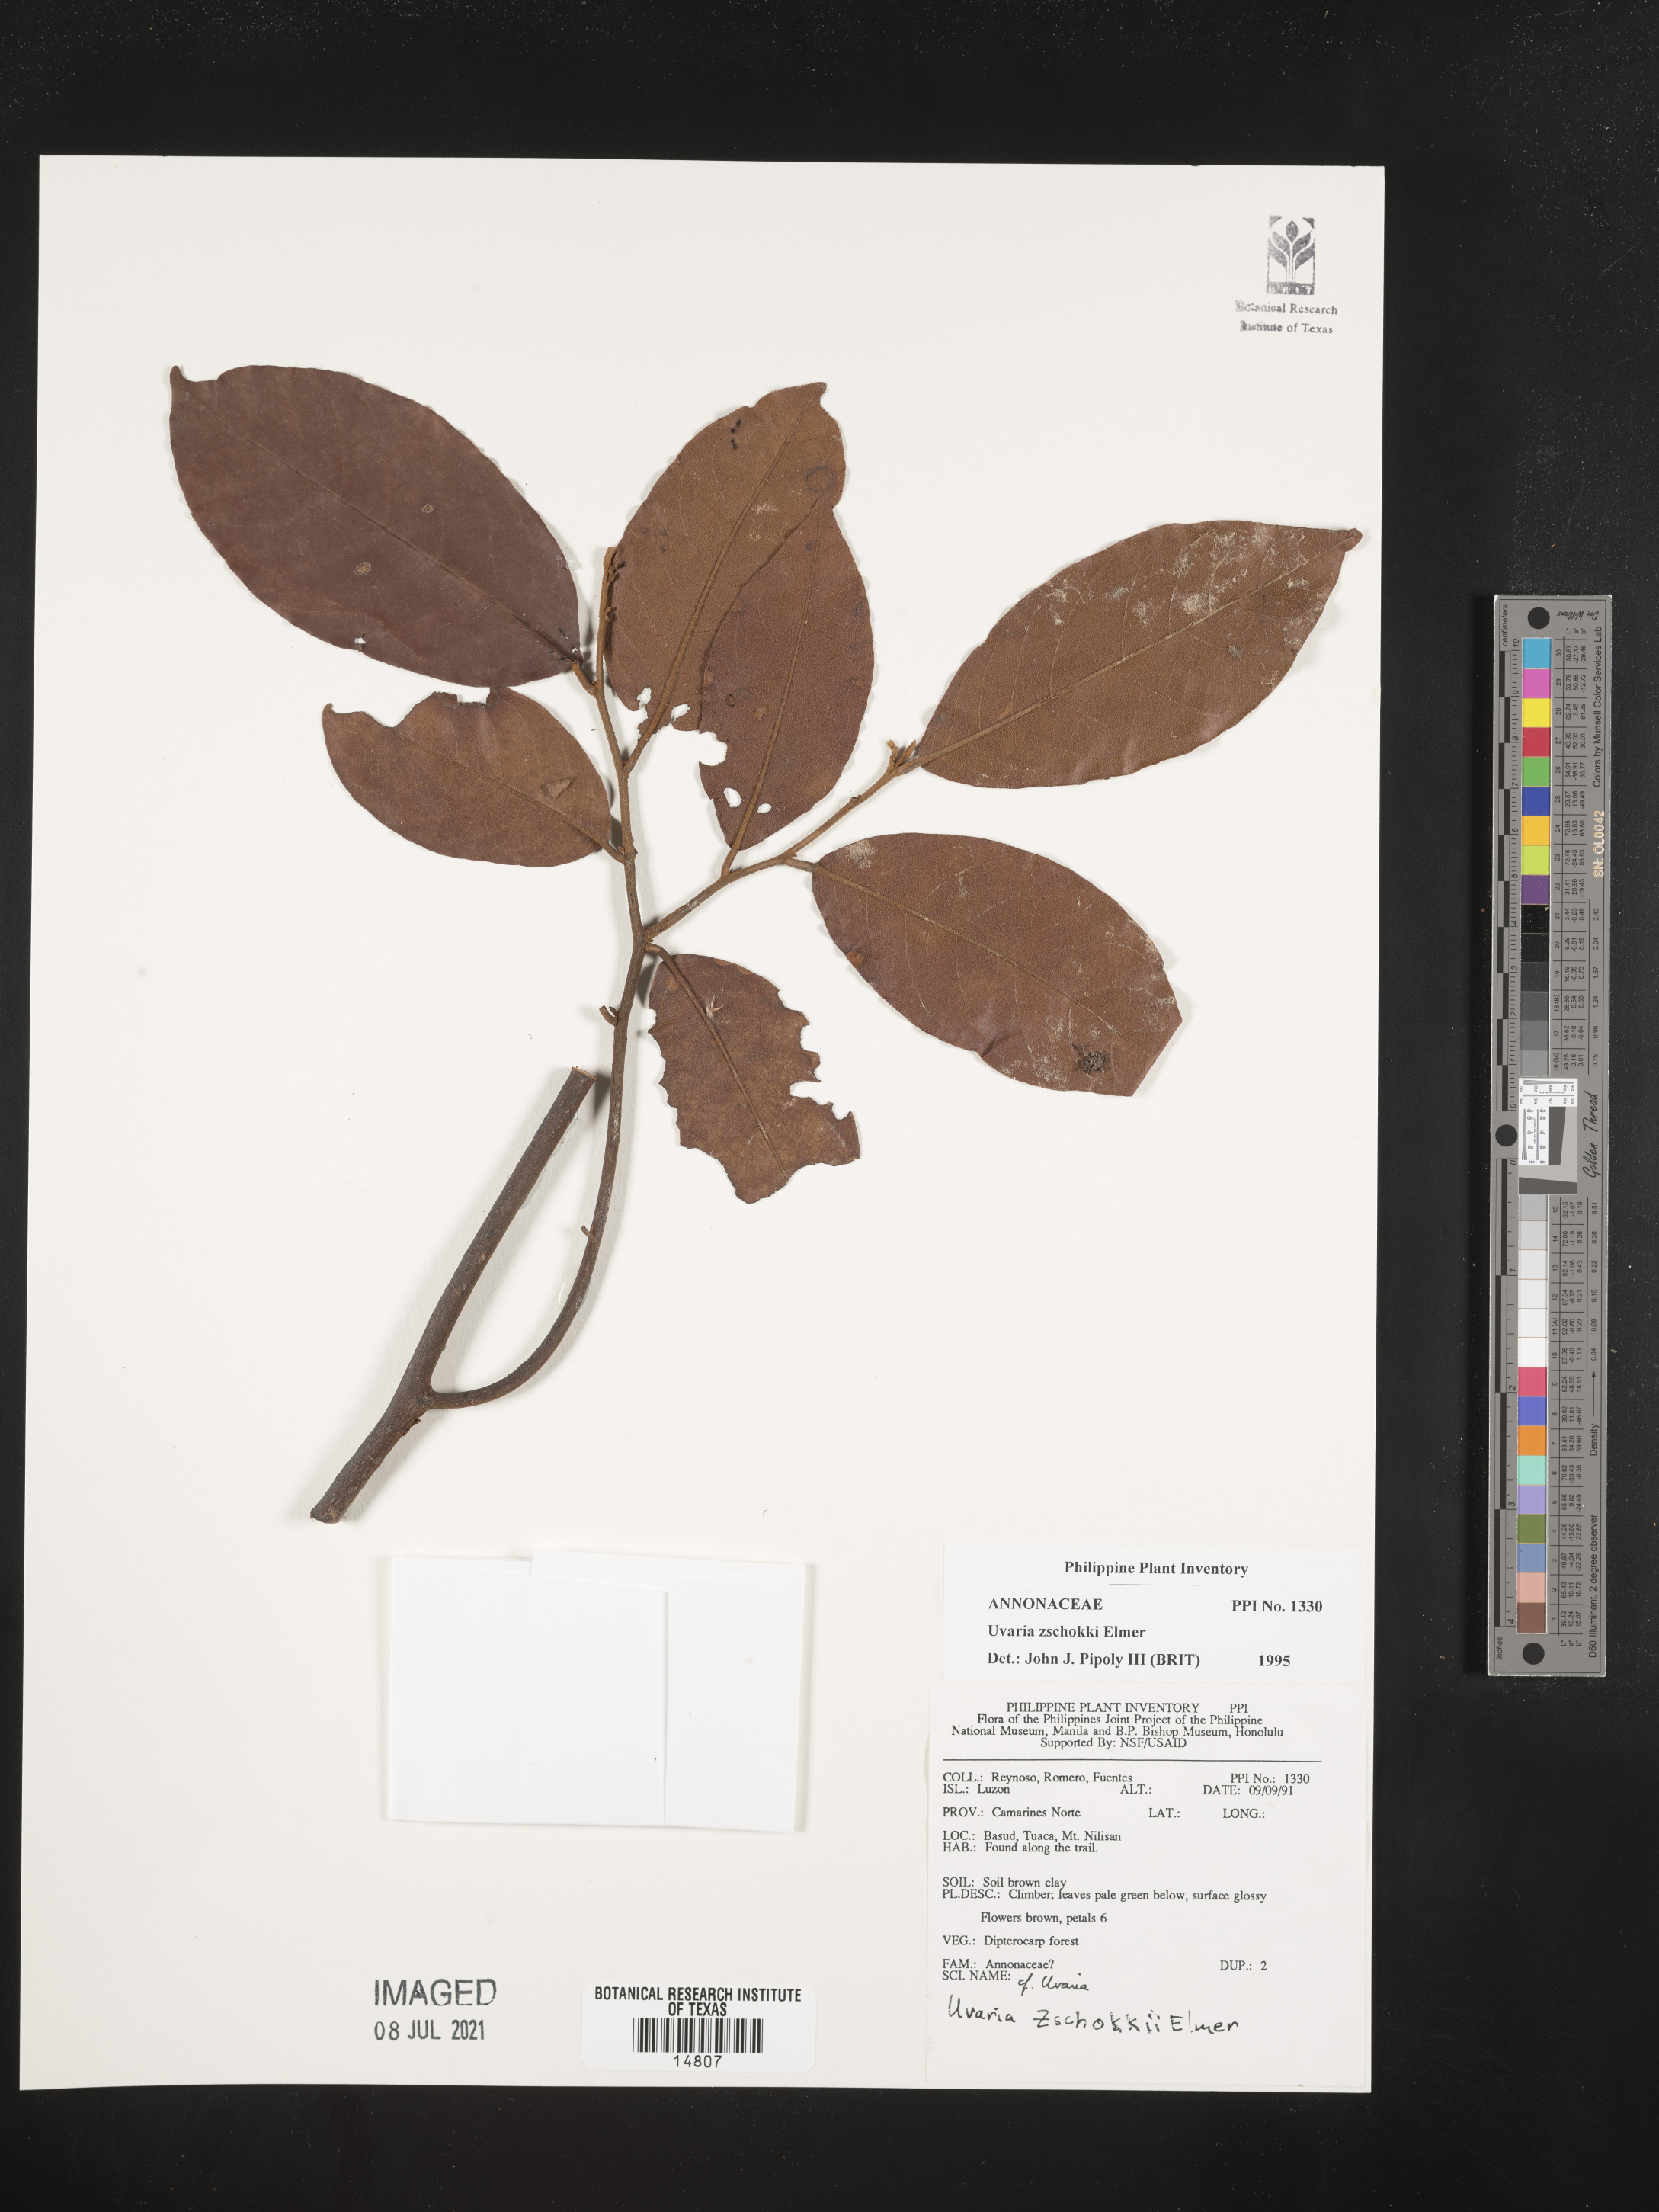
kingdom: Plantae
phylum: Tracheophyta
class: Magnoliopsida
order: Magnoliales
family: Annonaceae
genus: Uvaria
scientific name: Uvaria zschokkei
